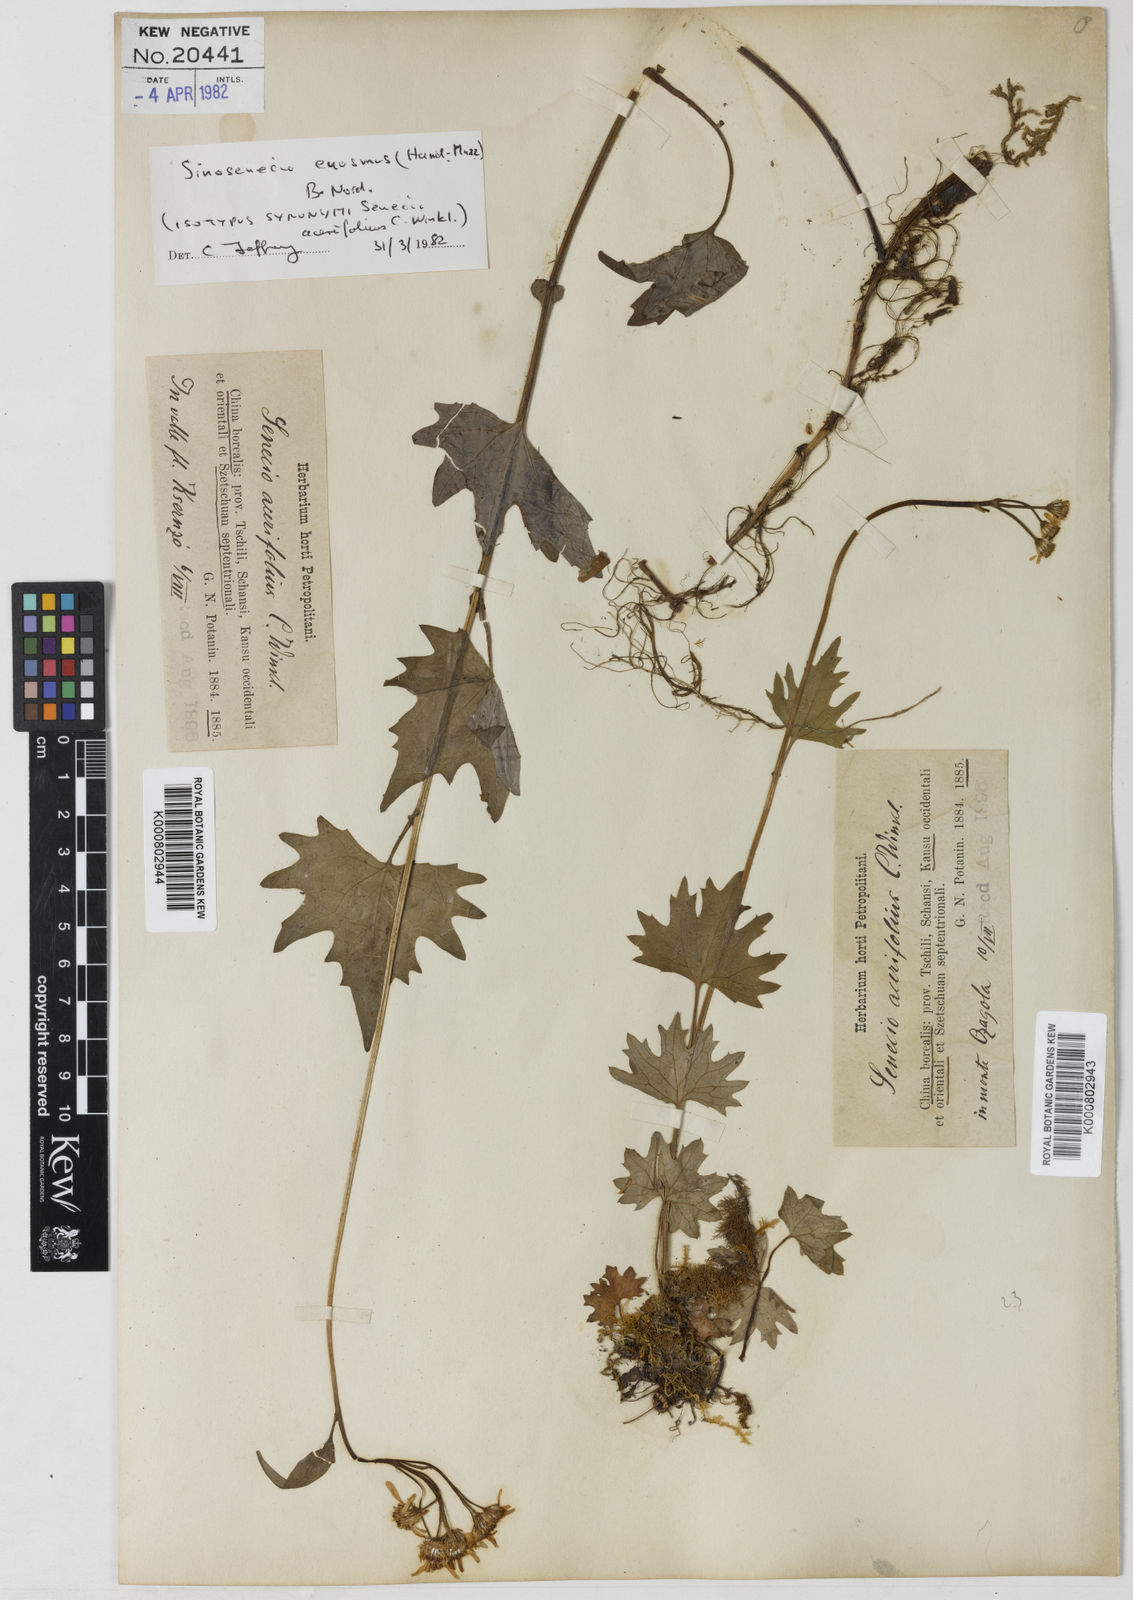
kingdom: Plantae
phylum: Tracheophyta
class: Magnoliopsida
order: Asterales
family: Asteraceae
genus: Sinosenecio
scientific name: Sinosenecio euosmus
